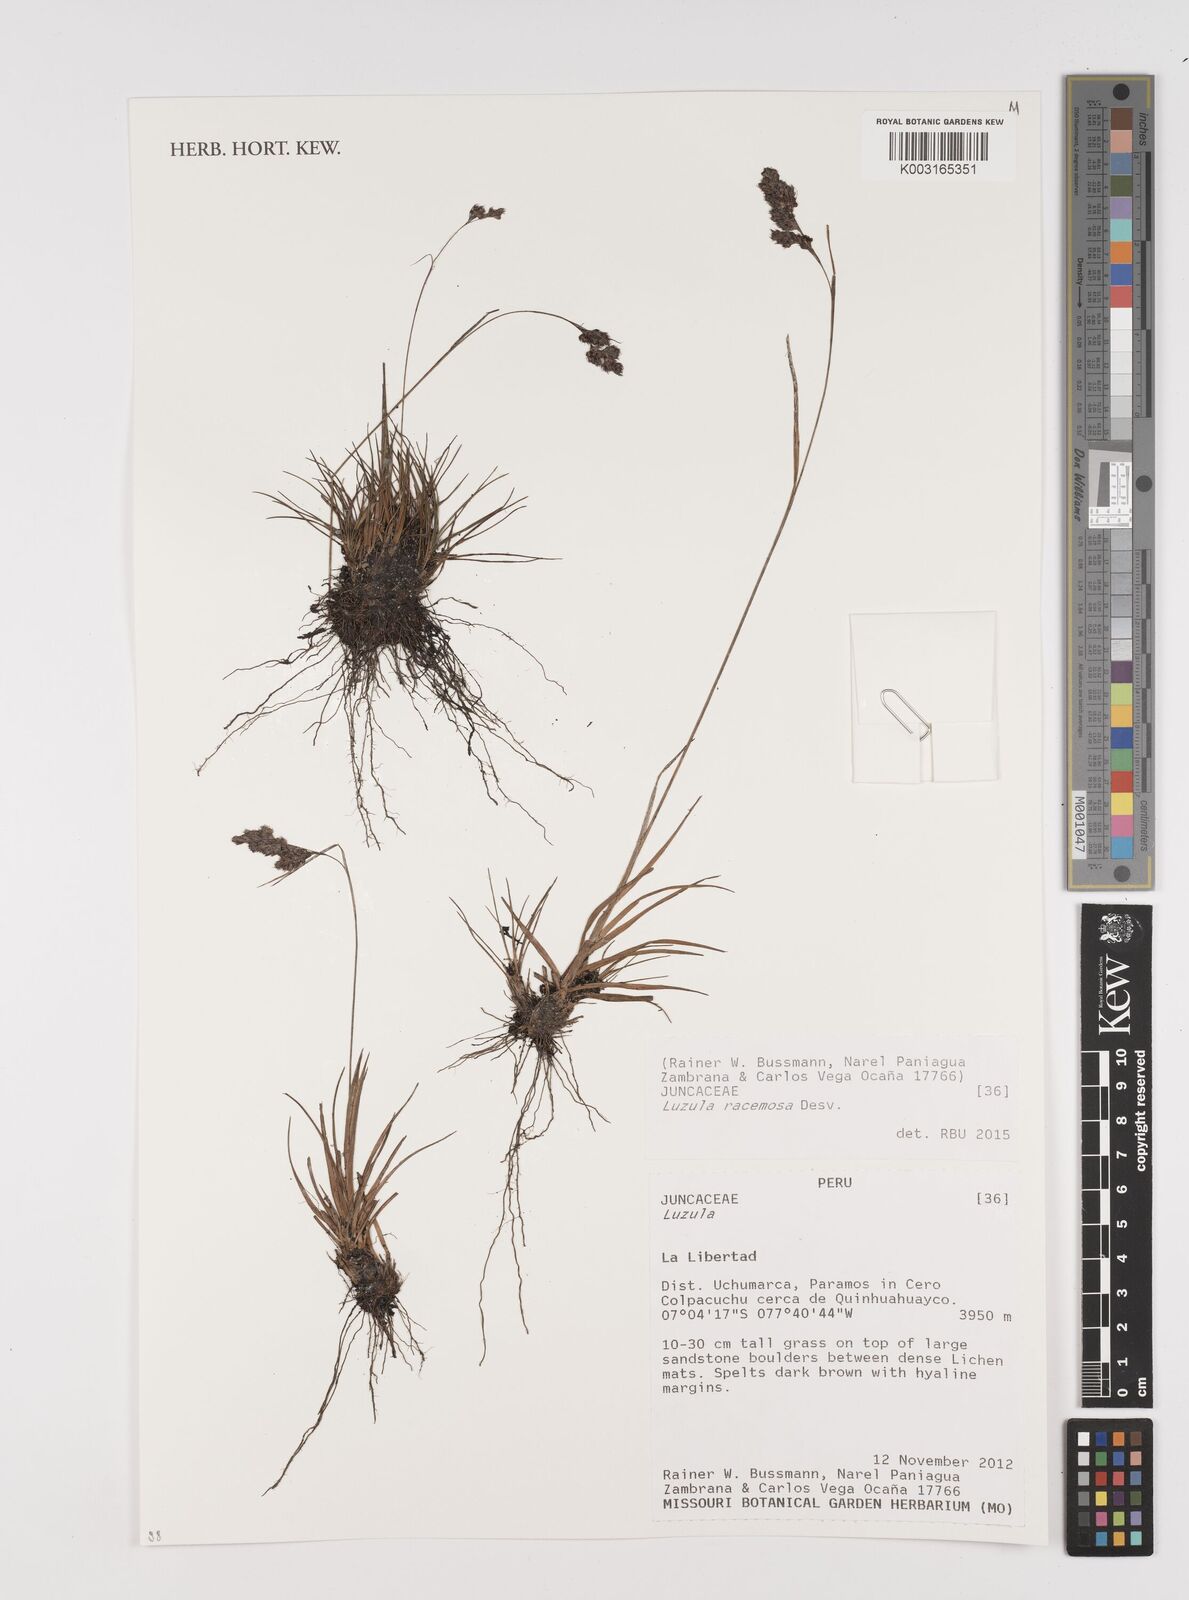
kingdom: Plantae
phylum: Tracheophyta
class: Liliopsida
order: Poales
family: Juncaceae
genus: Luzula
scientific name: Luzula racemosa
